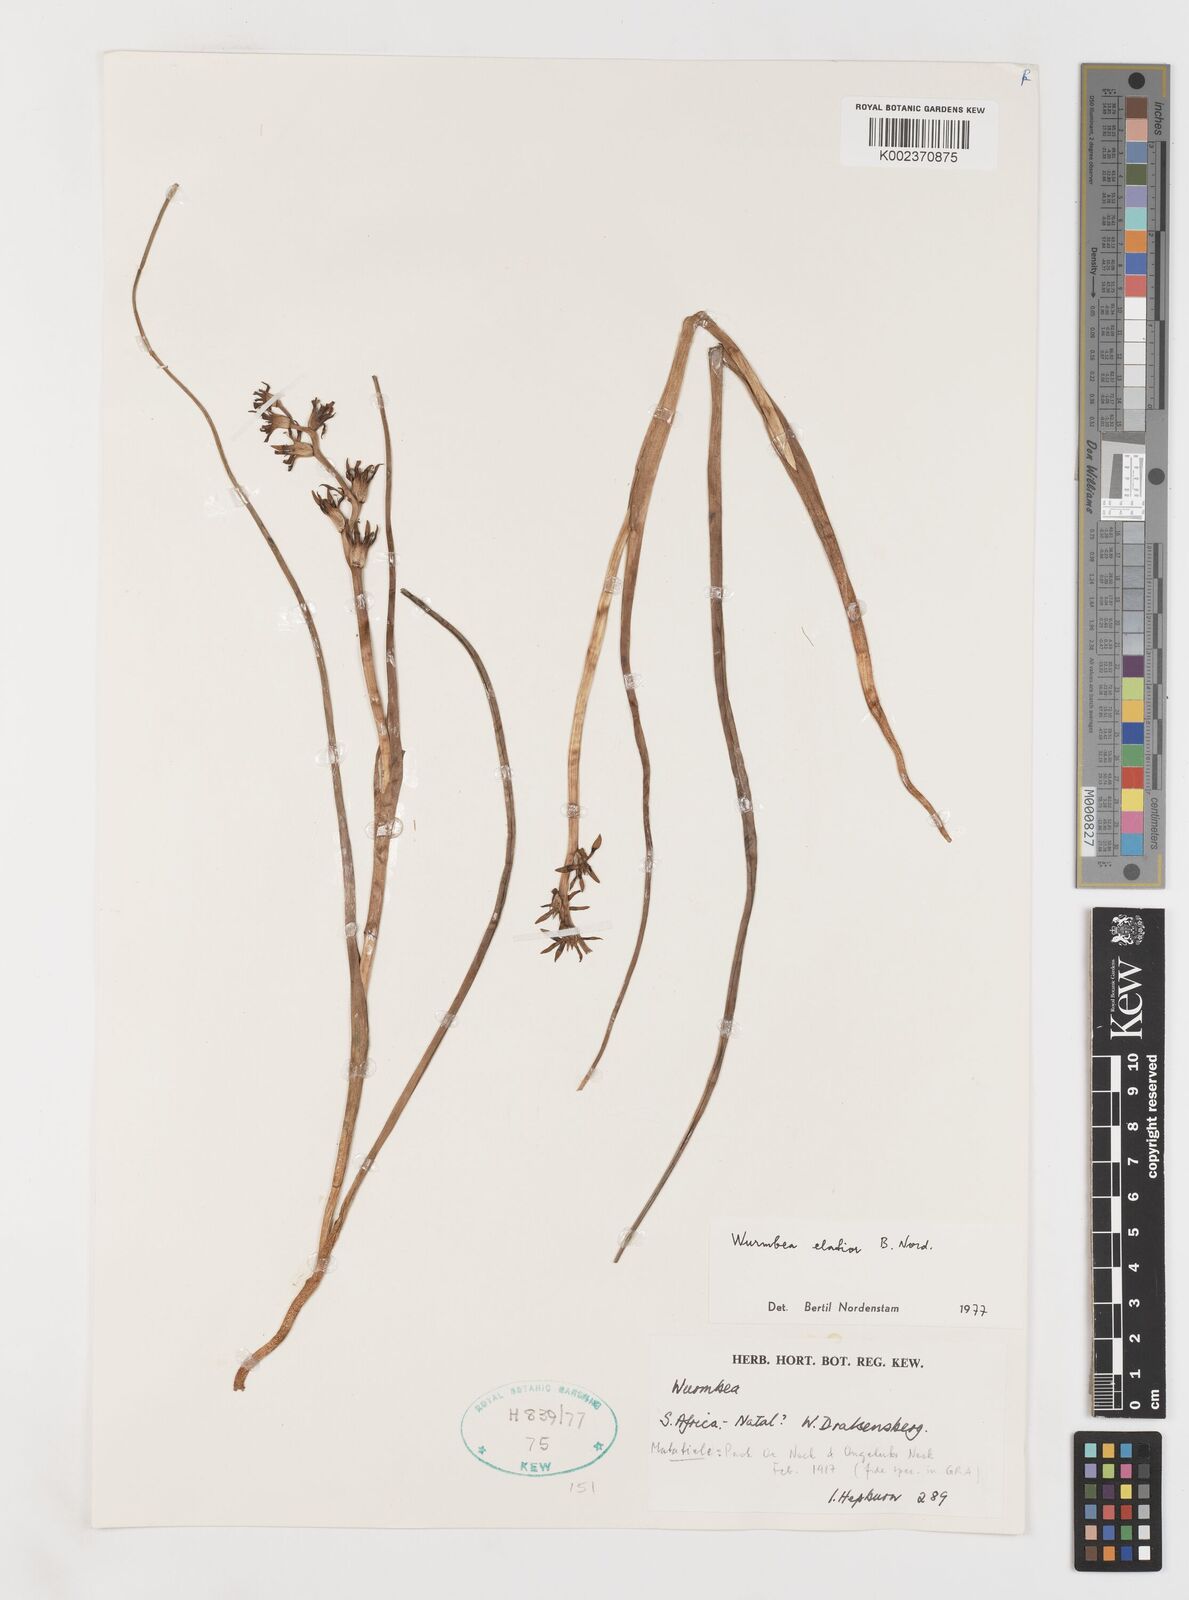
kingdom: Plantae
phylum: Tracheophyta
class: Liliopsida
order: Liliales
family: Colchicaceae
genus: Wurmbea
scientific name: Wurmbea elatior
